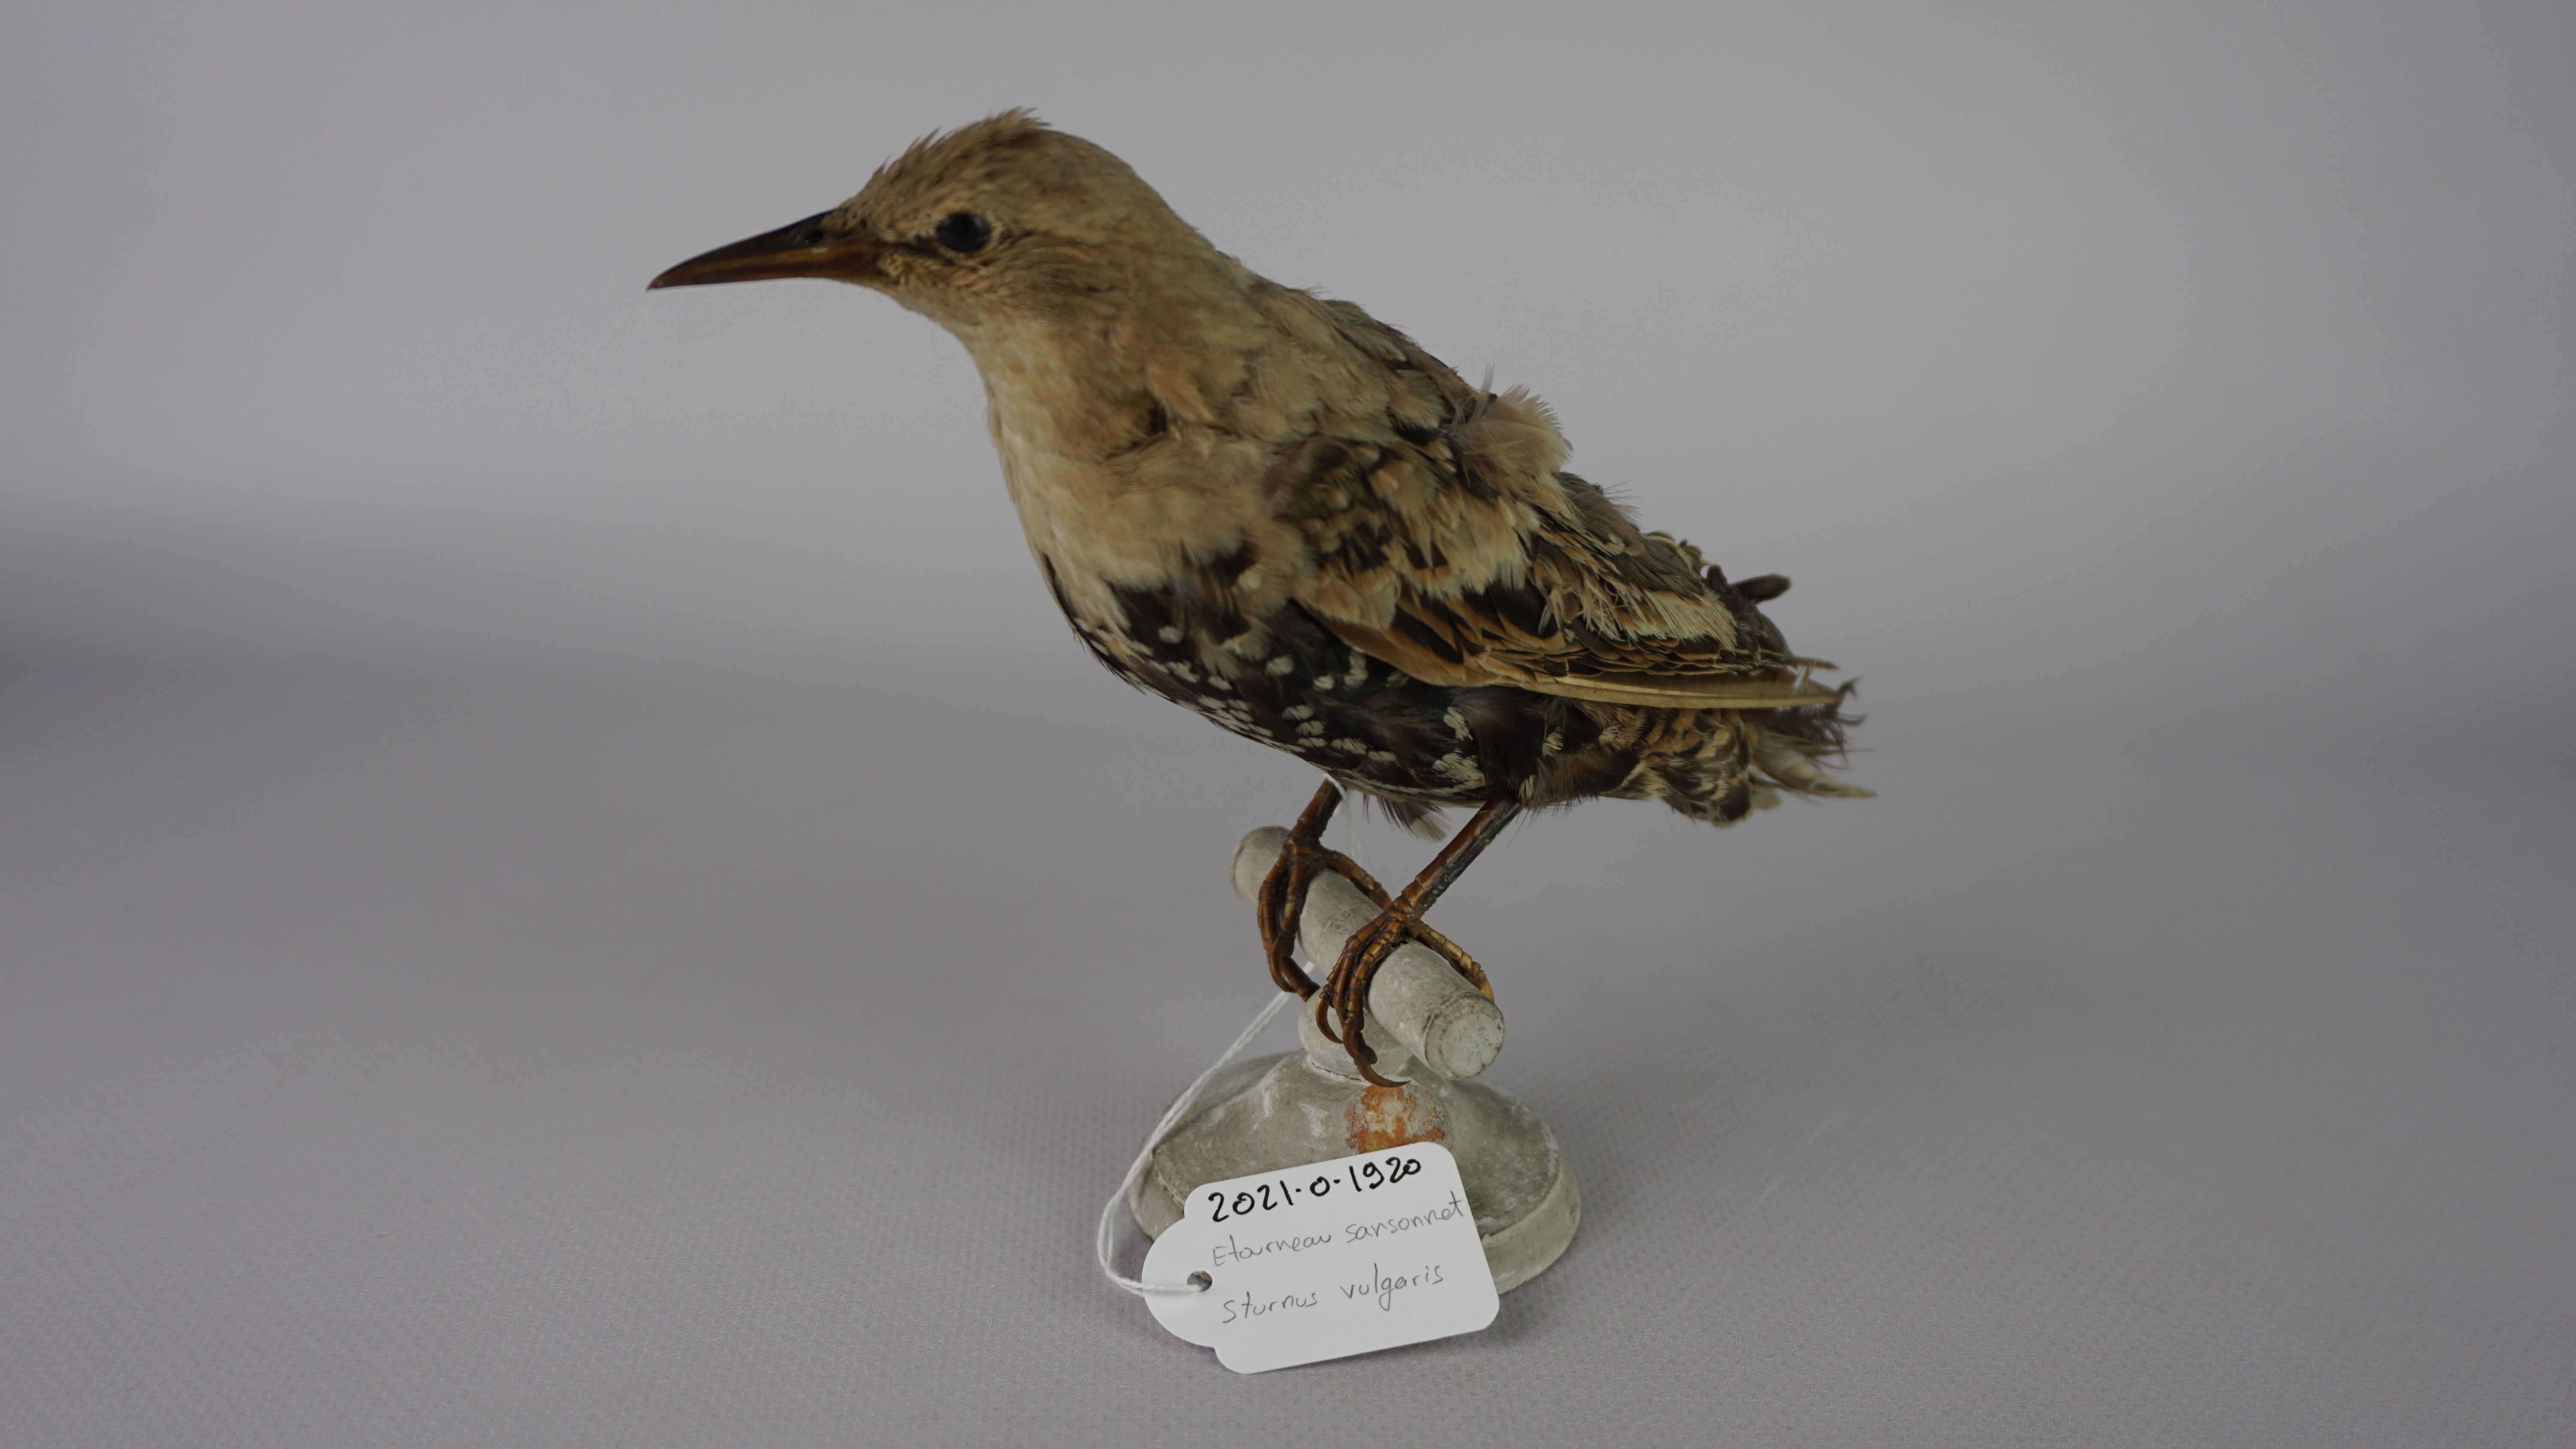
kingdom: Animalia
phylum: Chordata
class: Aves
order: Passeriformes
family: Sturnidae
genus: Sturnus
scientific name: Sturnus vulgaris
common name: Common starling
